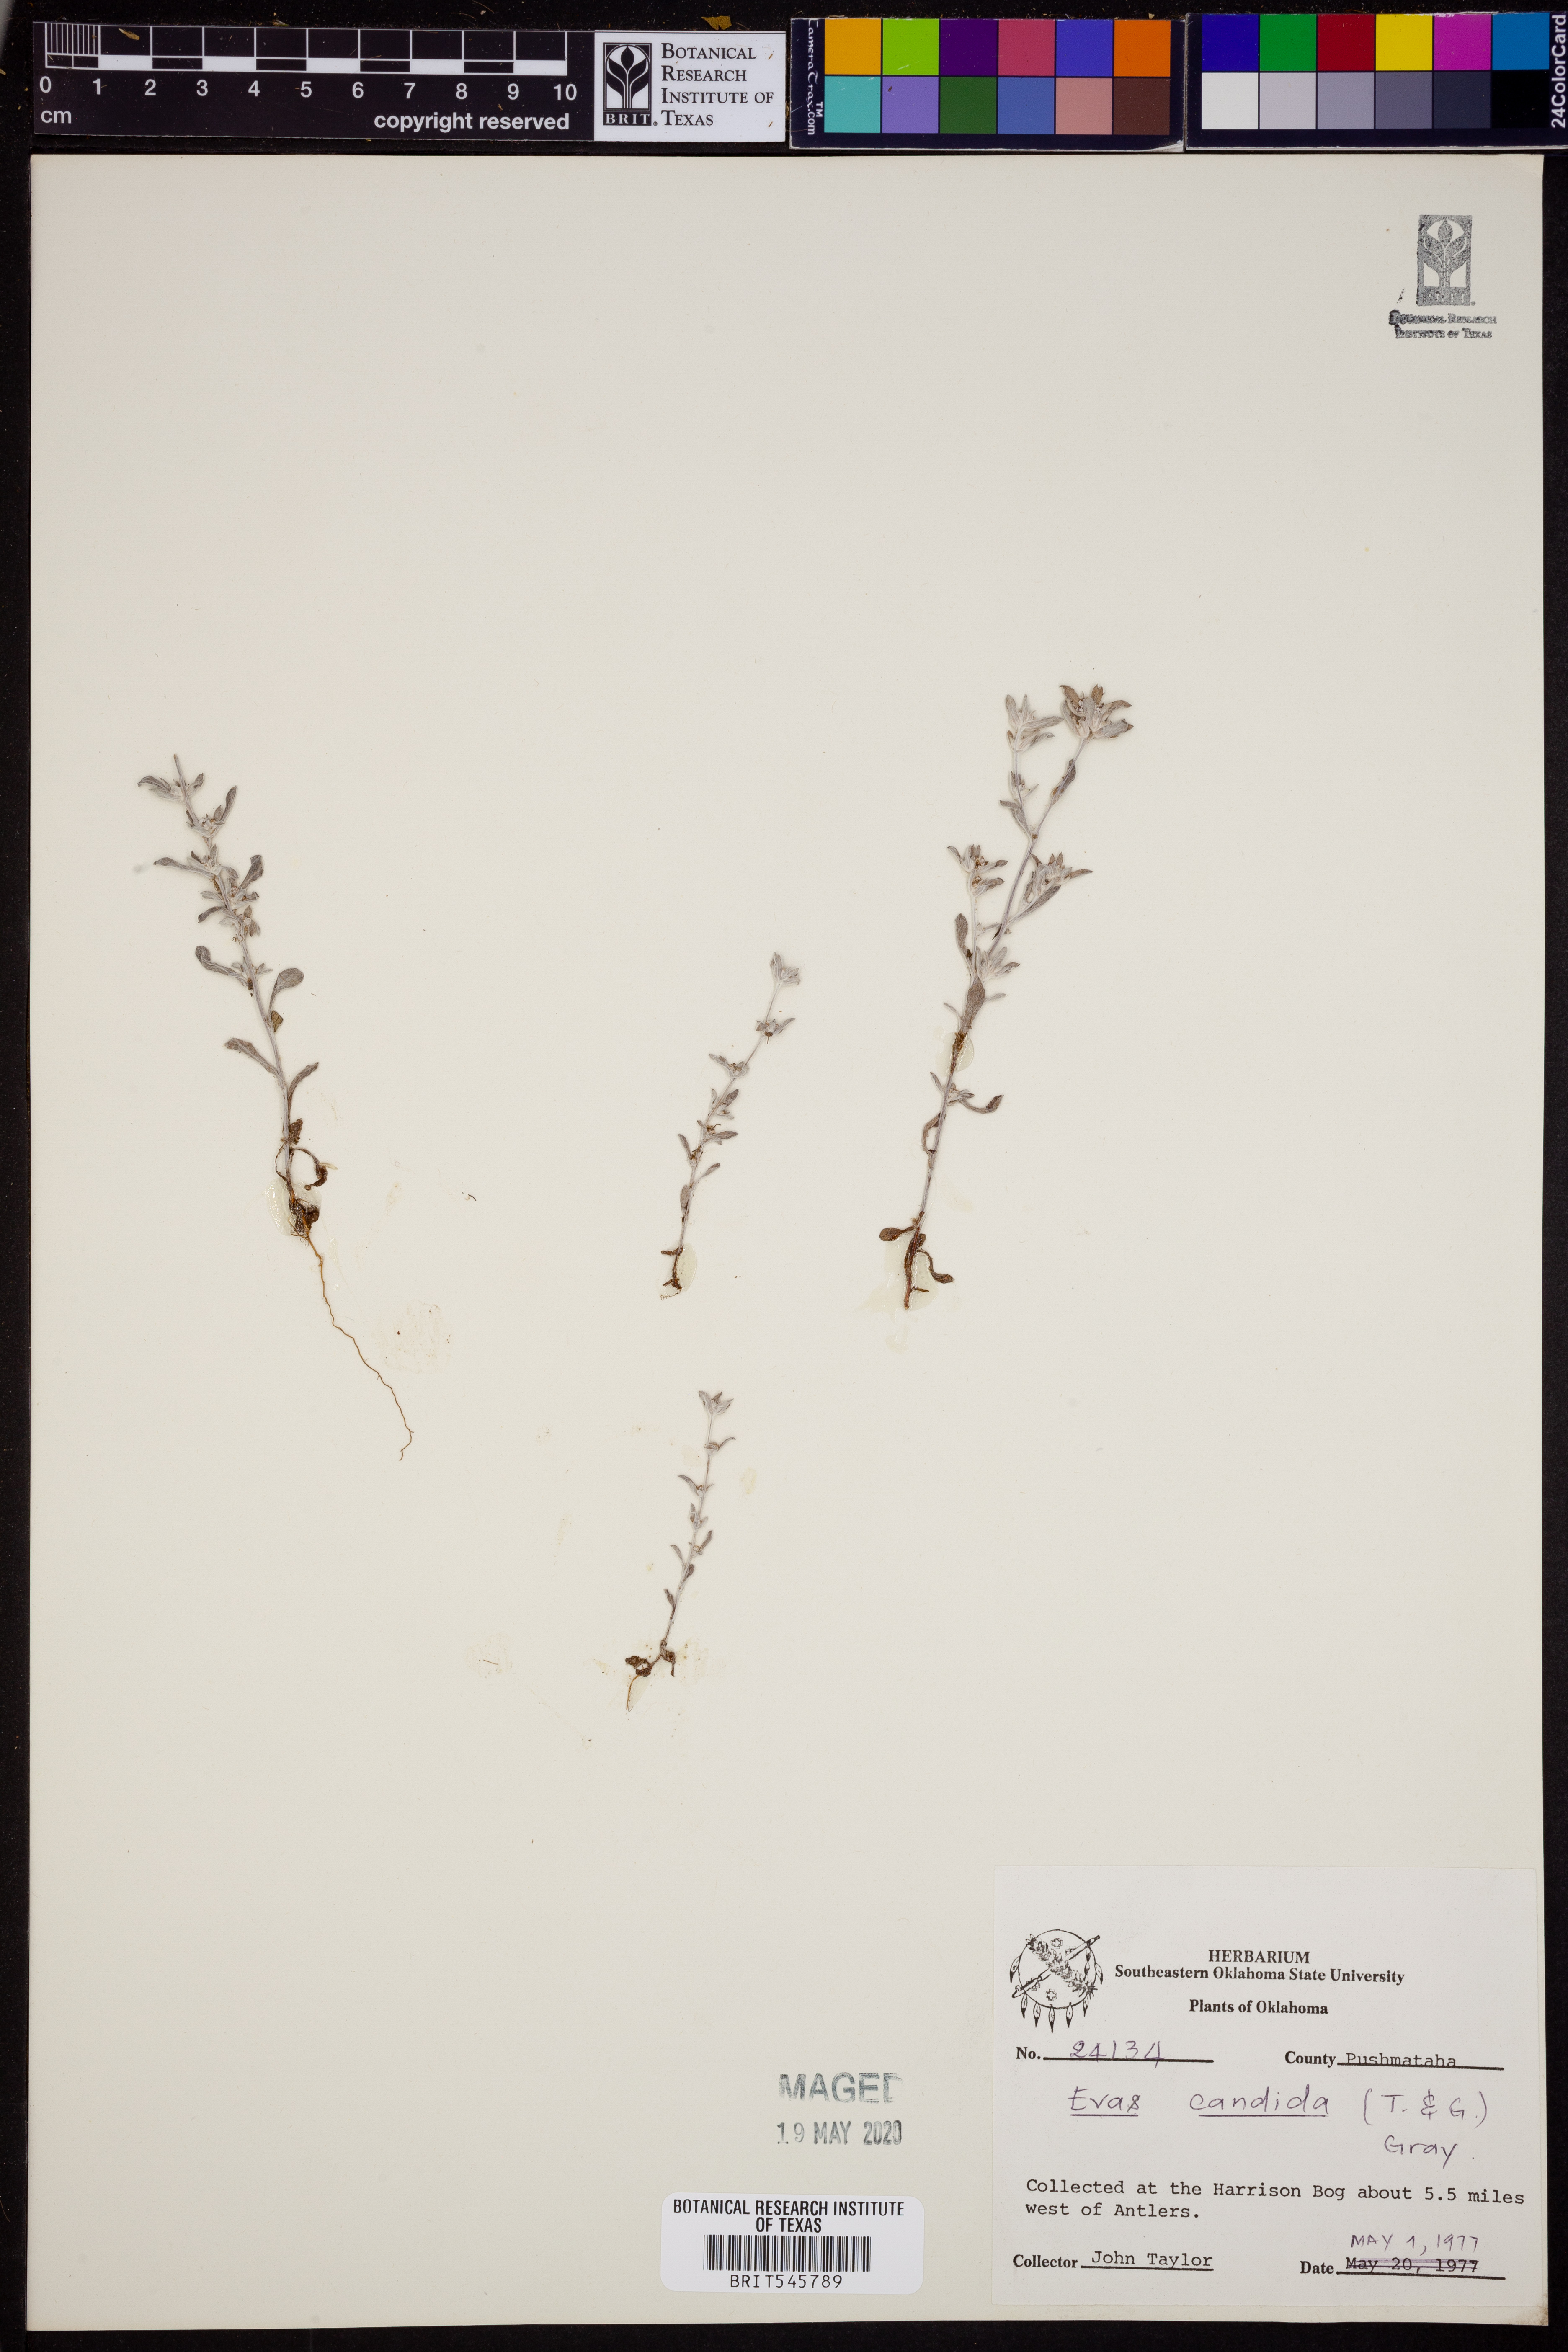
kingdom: Plantae
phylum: Tracheophyta
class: Magnoliopsida
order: Asterales
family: Asteraceae
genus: Diaperia
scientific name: Diaperia candida
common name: Silver rabbit-tobacco
